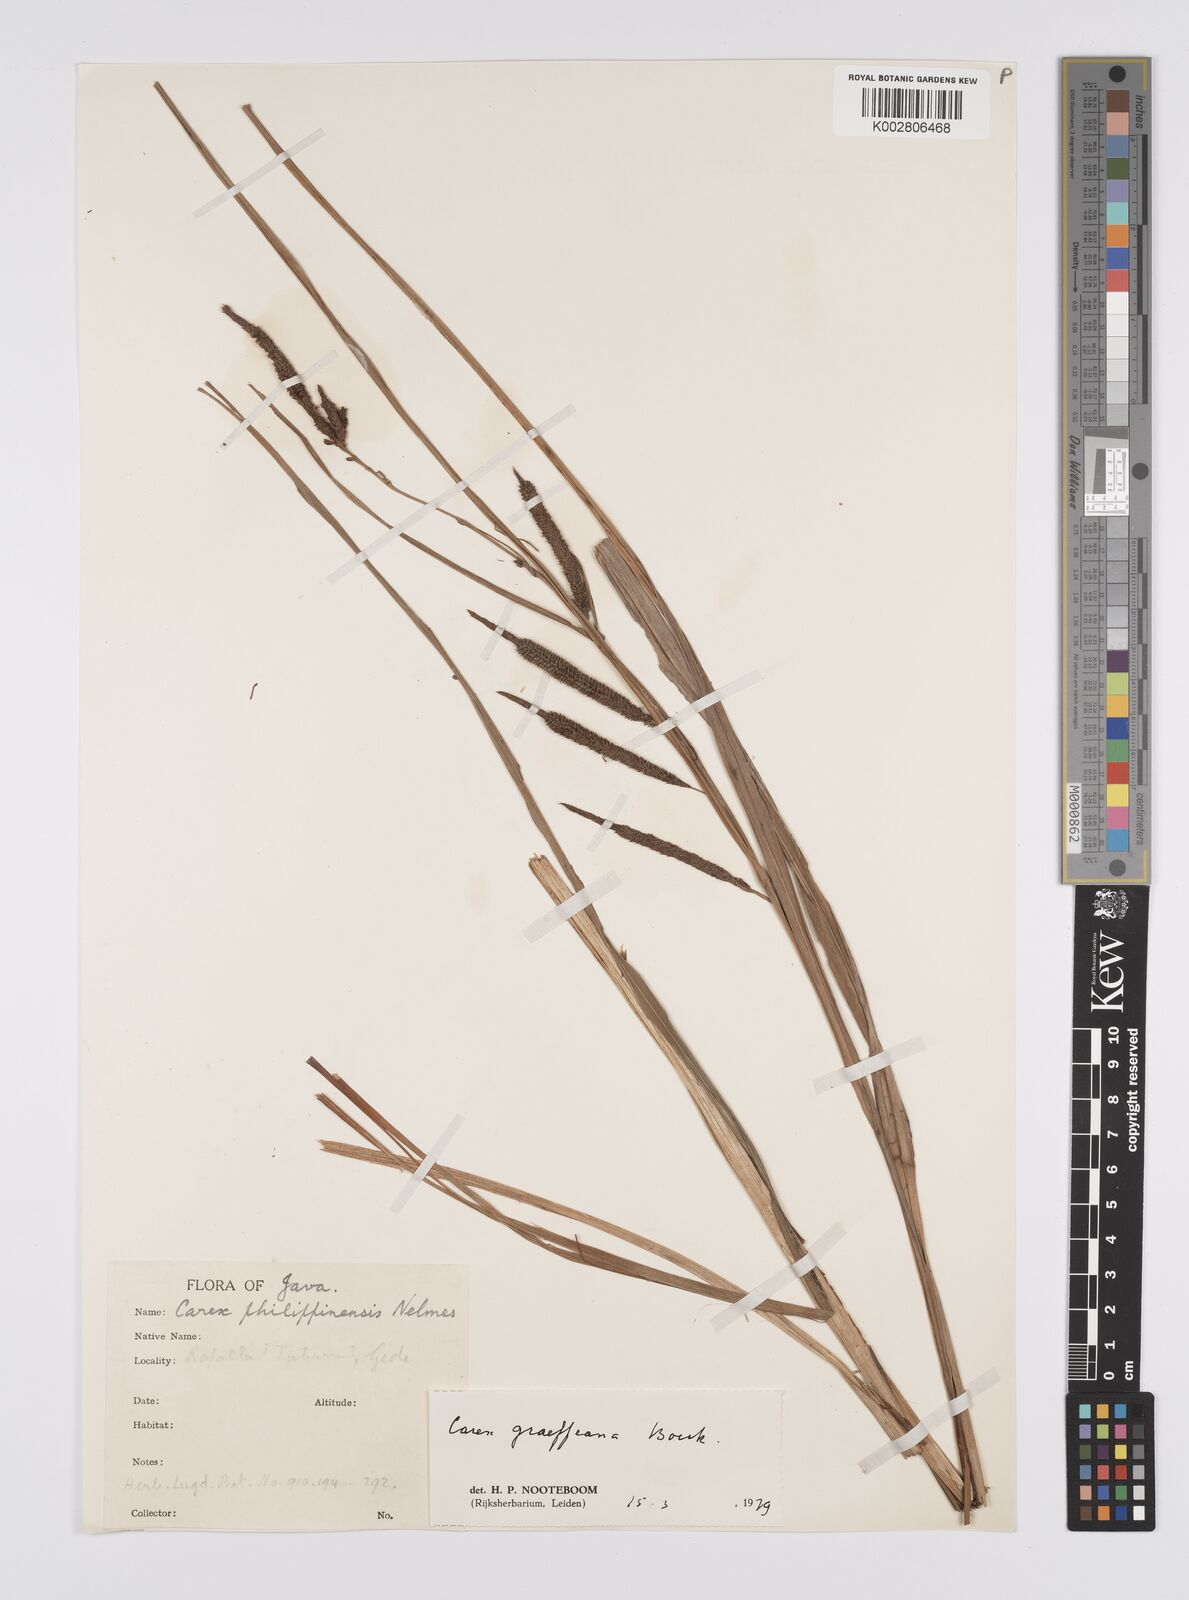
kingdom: Plantae
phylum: Tracheophyta
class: Liliopsida
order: Poales
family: Cyperaceae
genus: Carex
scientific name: Carex graeffeana
